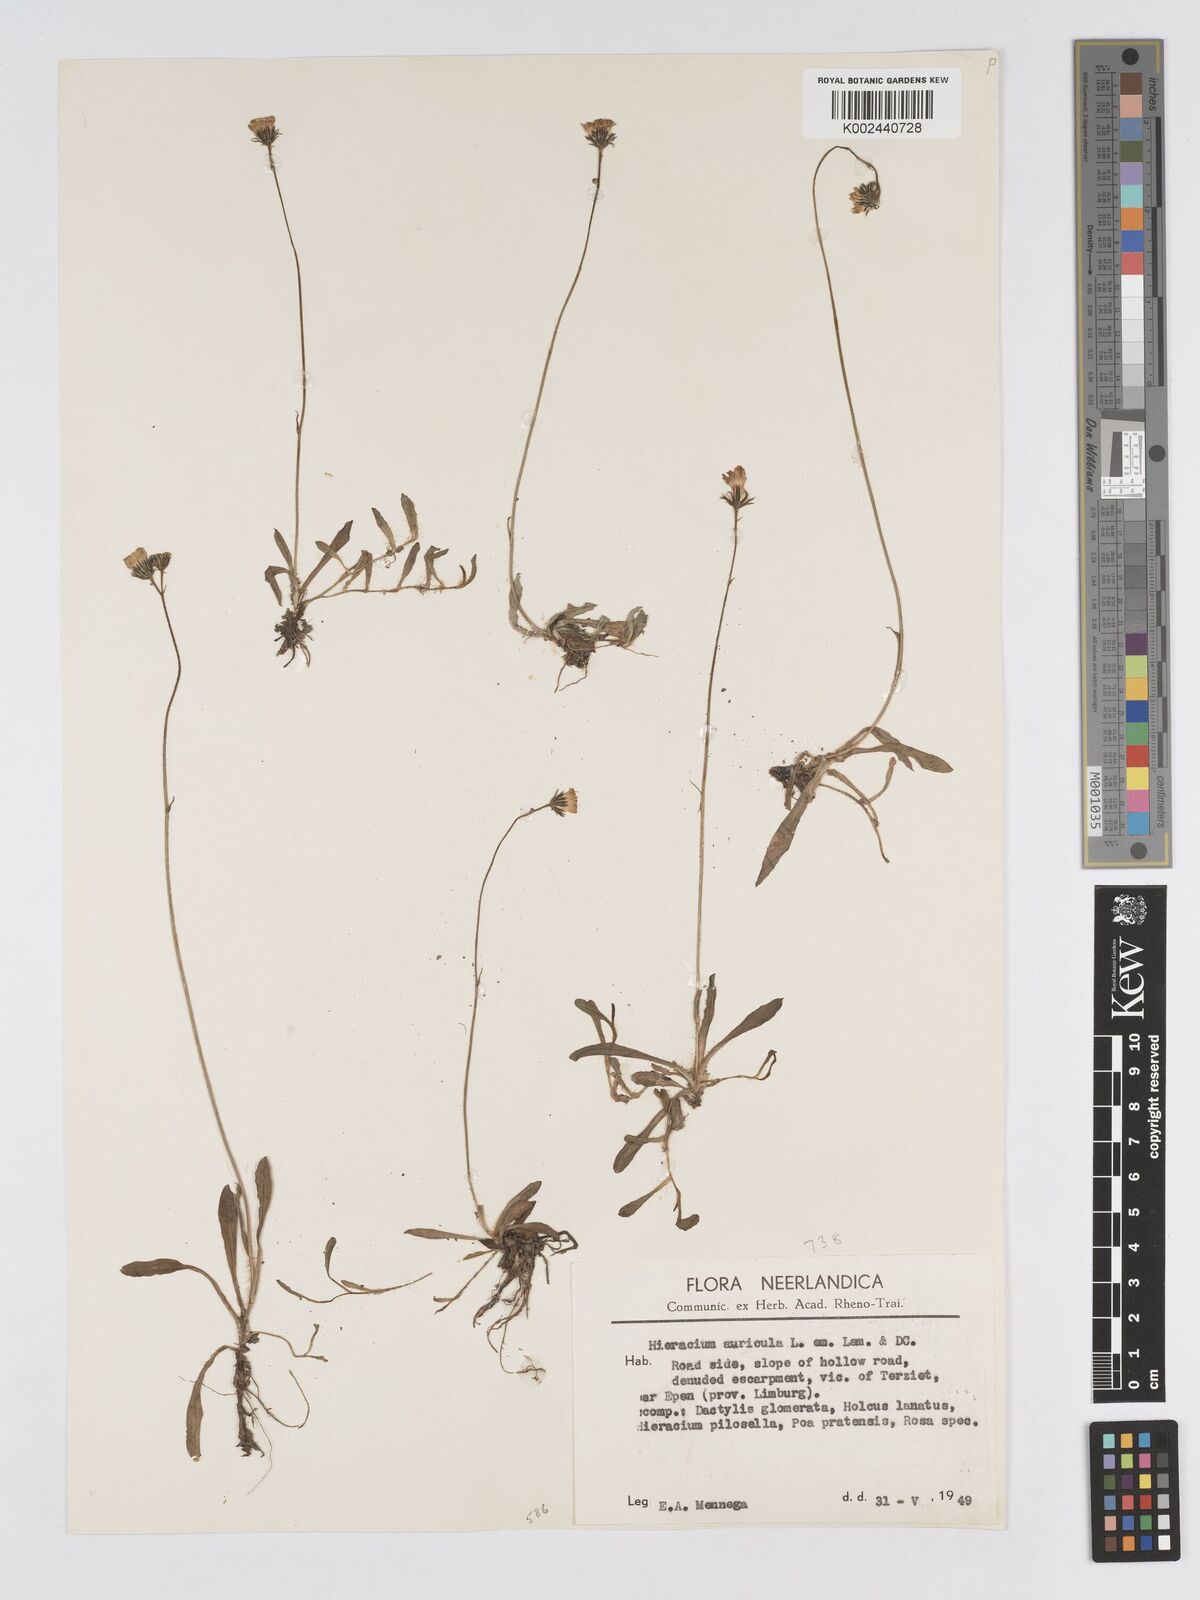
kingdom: Plantae
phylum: Tracheophyta
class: Magnoliopsida
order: Asterales
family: Asteraceae
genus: Pilosella
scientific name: Pilosella floribunda
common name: Glaucous hawkweed
